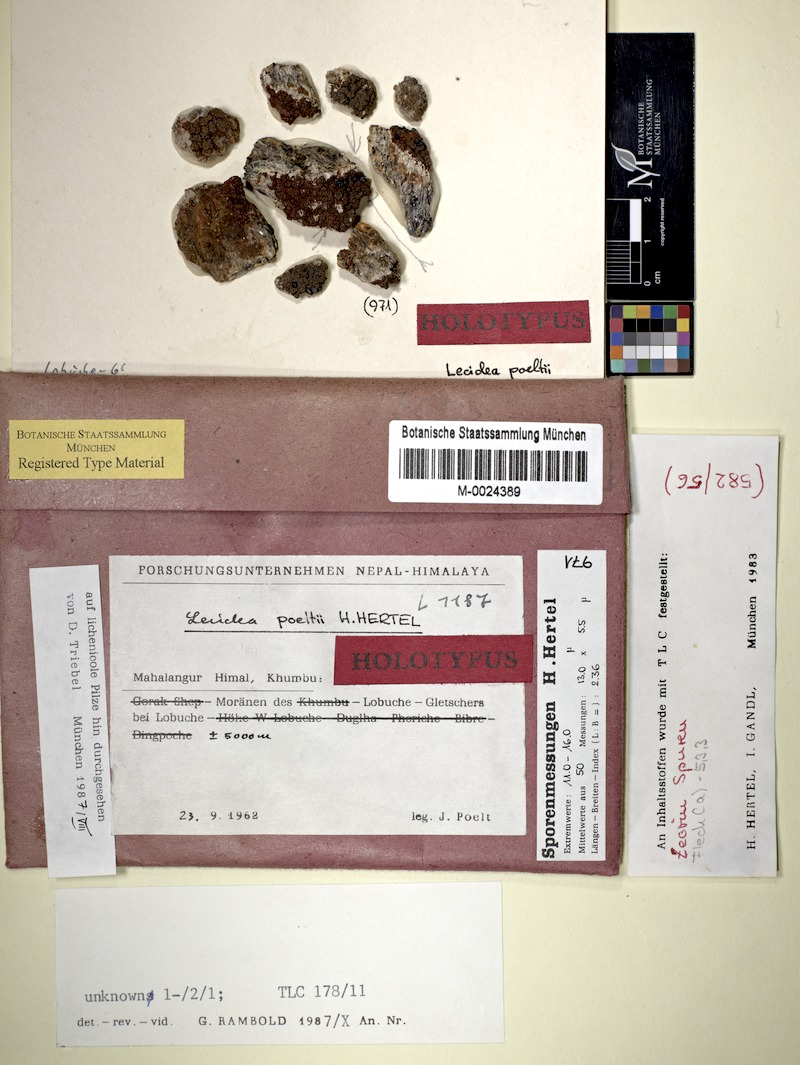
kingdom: Fungi
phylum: Ascomycota
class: Lecanoromycetes
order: Lecideales
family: Lecideaceae
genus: Lecidea
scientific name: Lecidea
